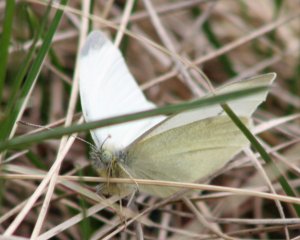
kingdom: Animalia
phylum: Arthropoda
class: Insecta
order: Lepidoptera
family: Pieridae
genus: Pieris
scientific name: Pieris rapae
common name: Cabbage White
